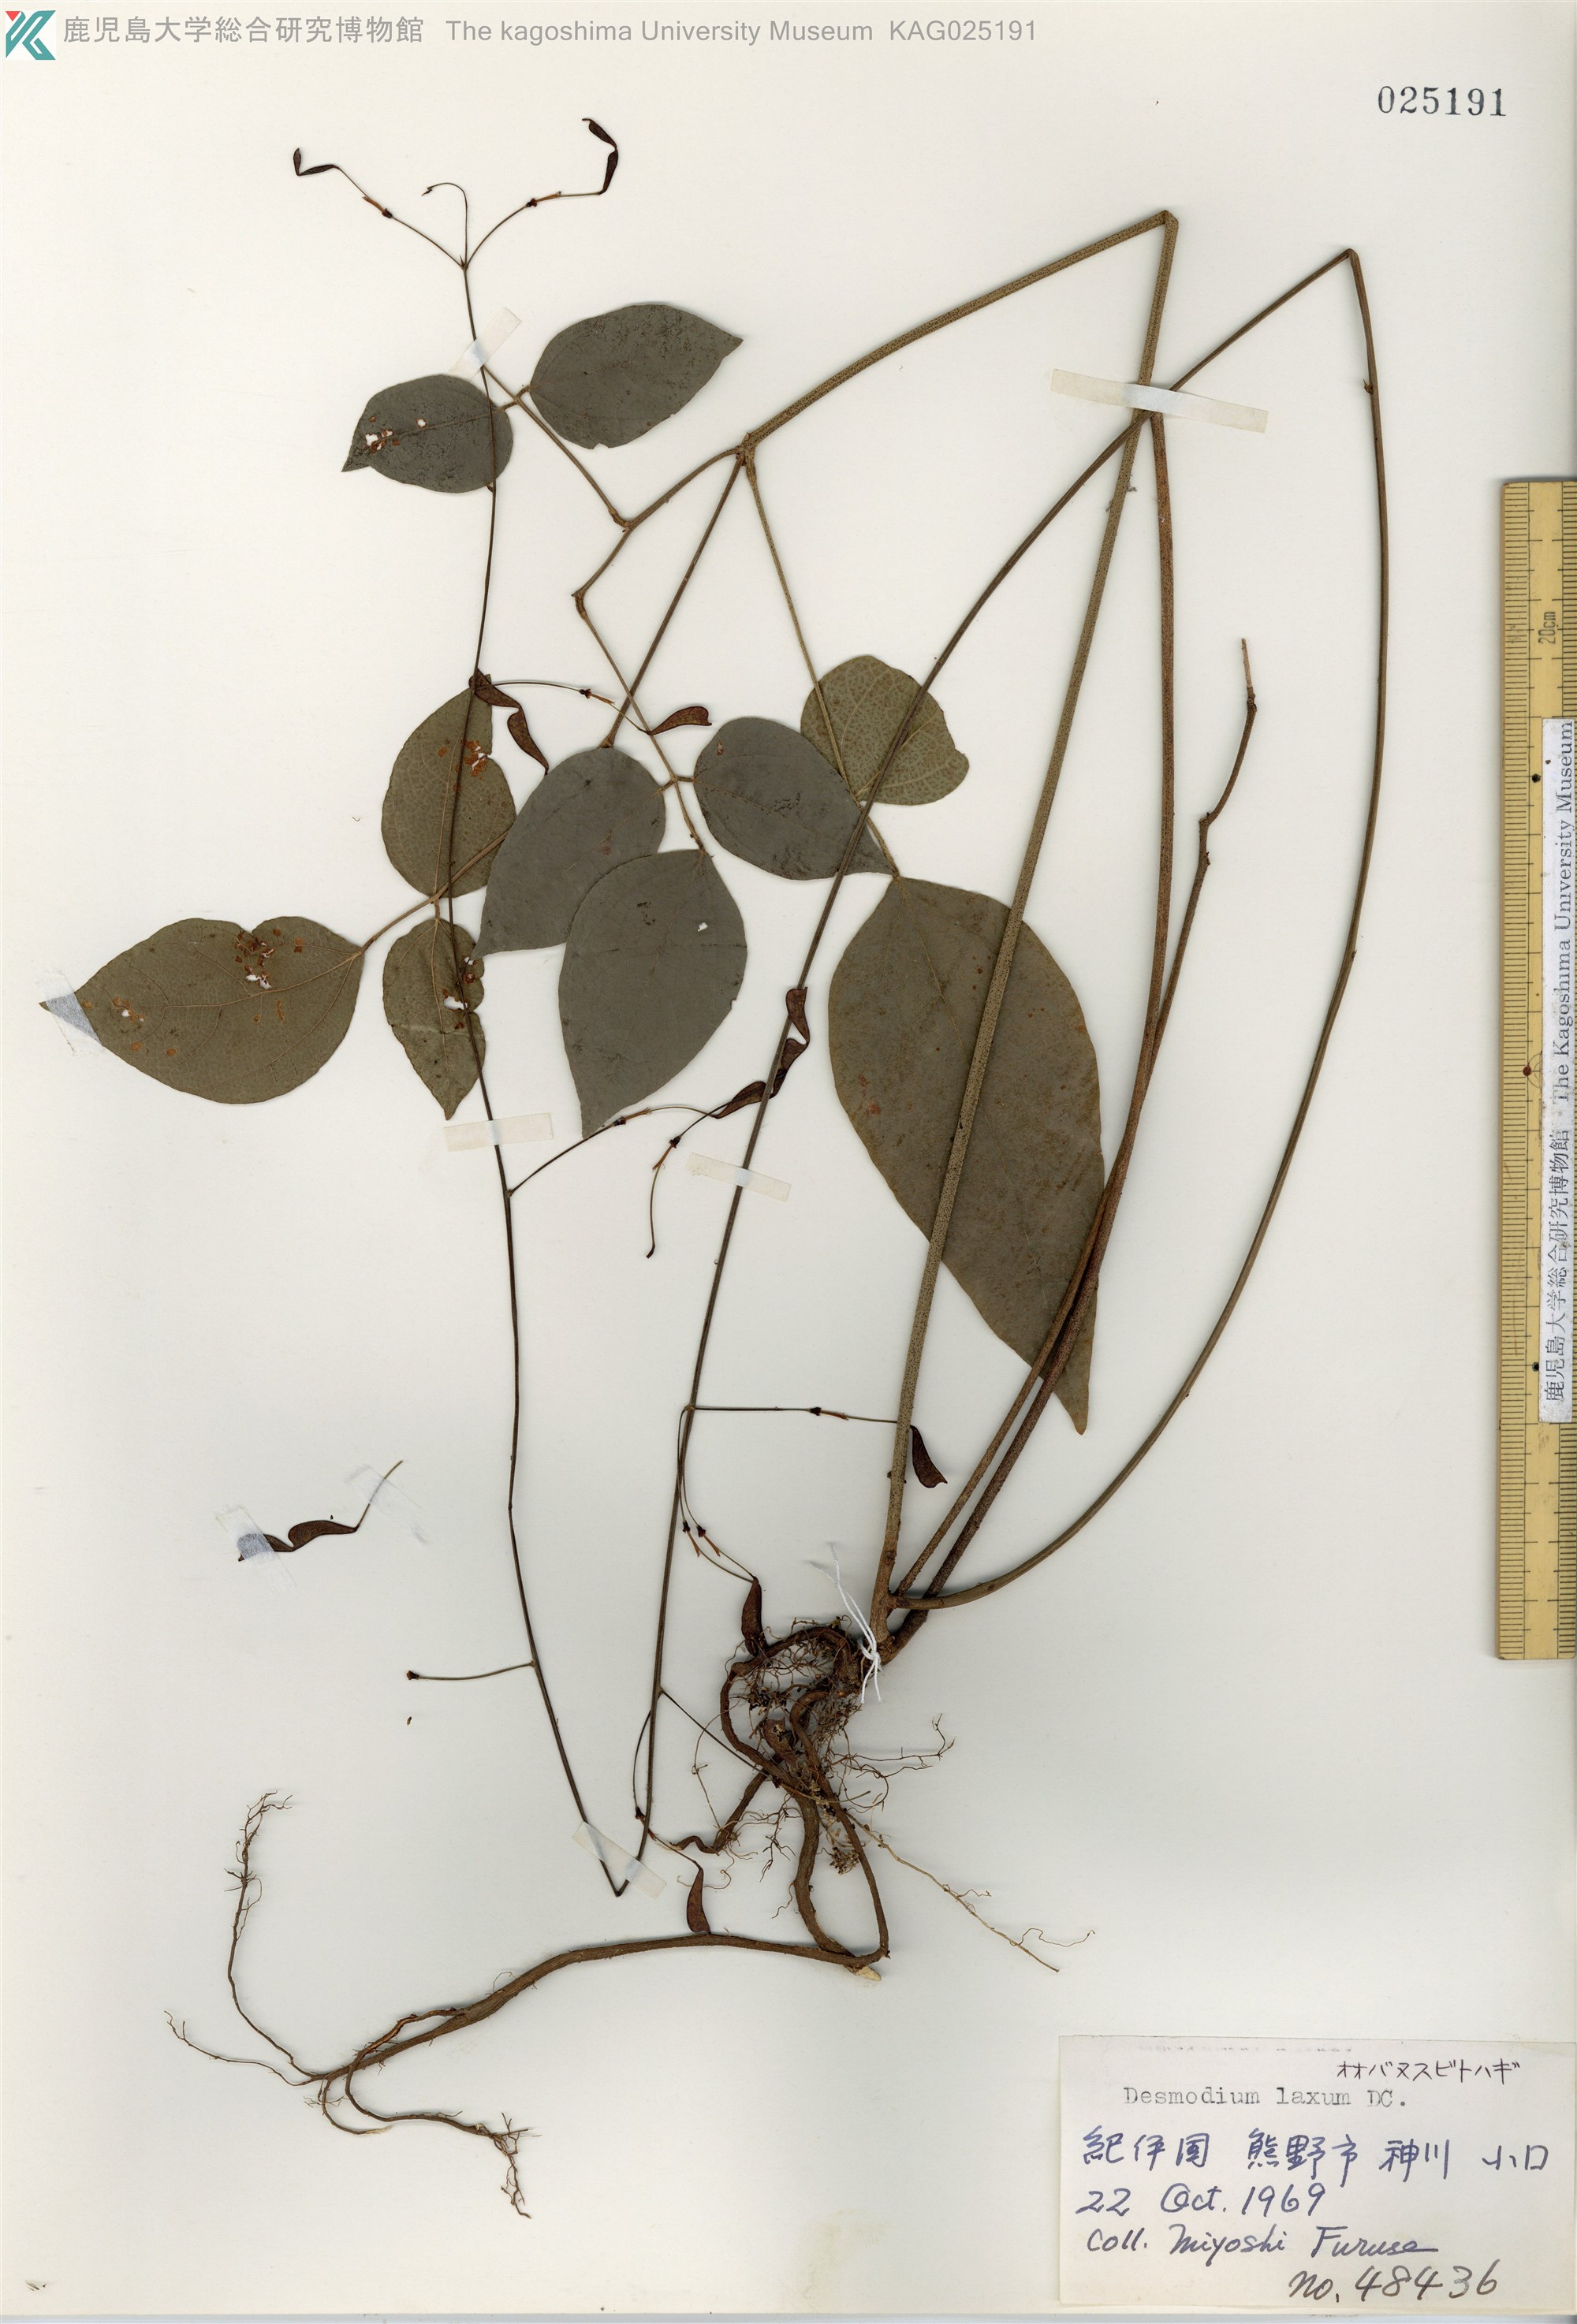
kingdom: Plantae
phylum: Tracheophyta
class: Magnoliopsida
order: Fabales
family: Fabaceae
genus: Desmodium
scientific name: Desmodium laxum
